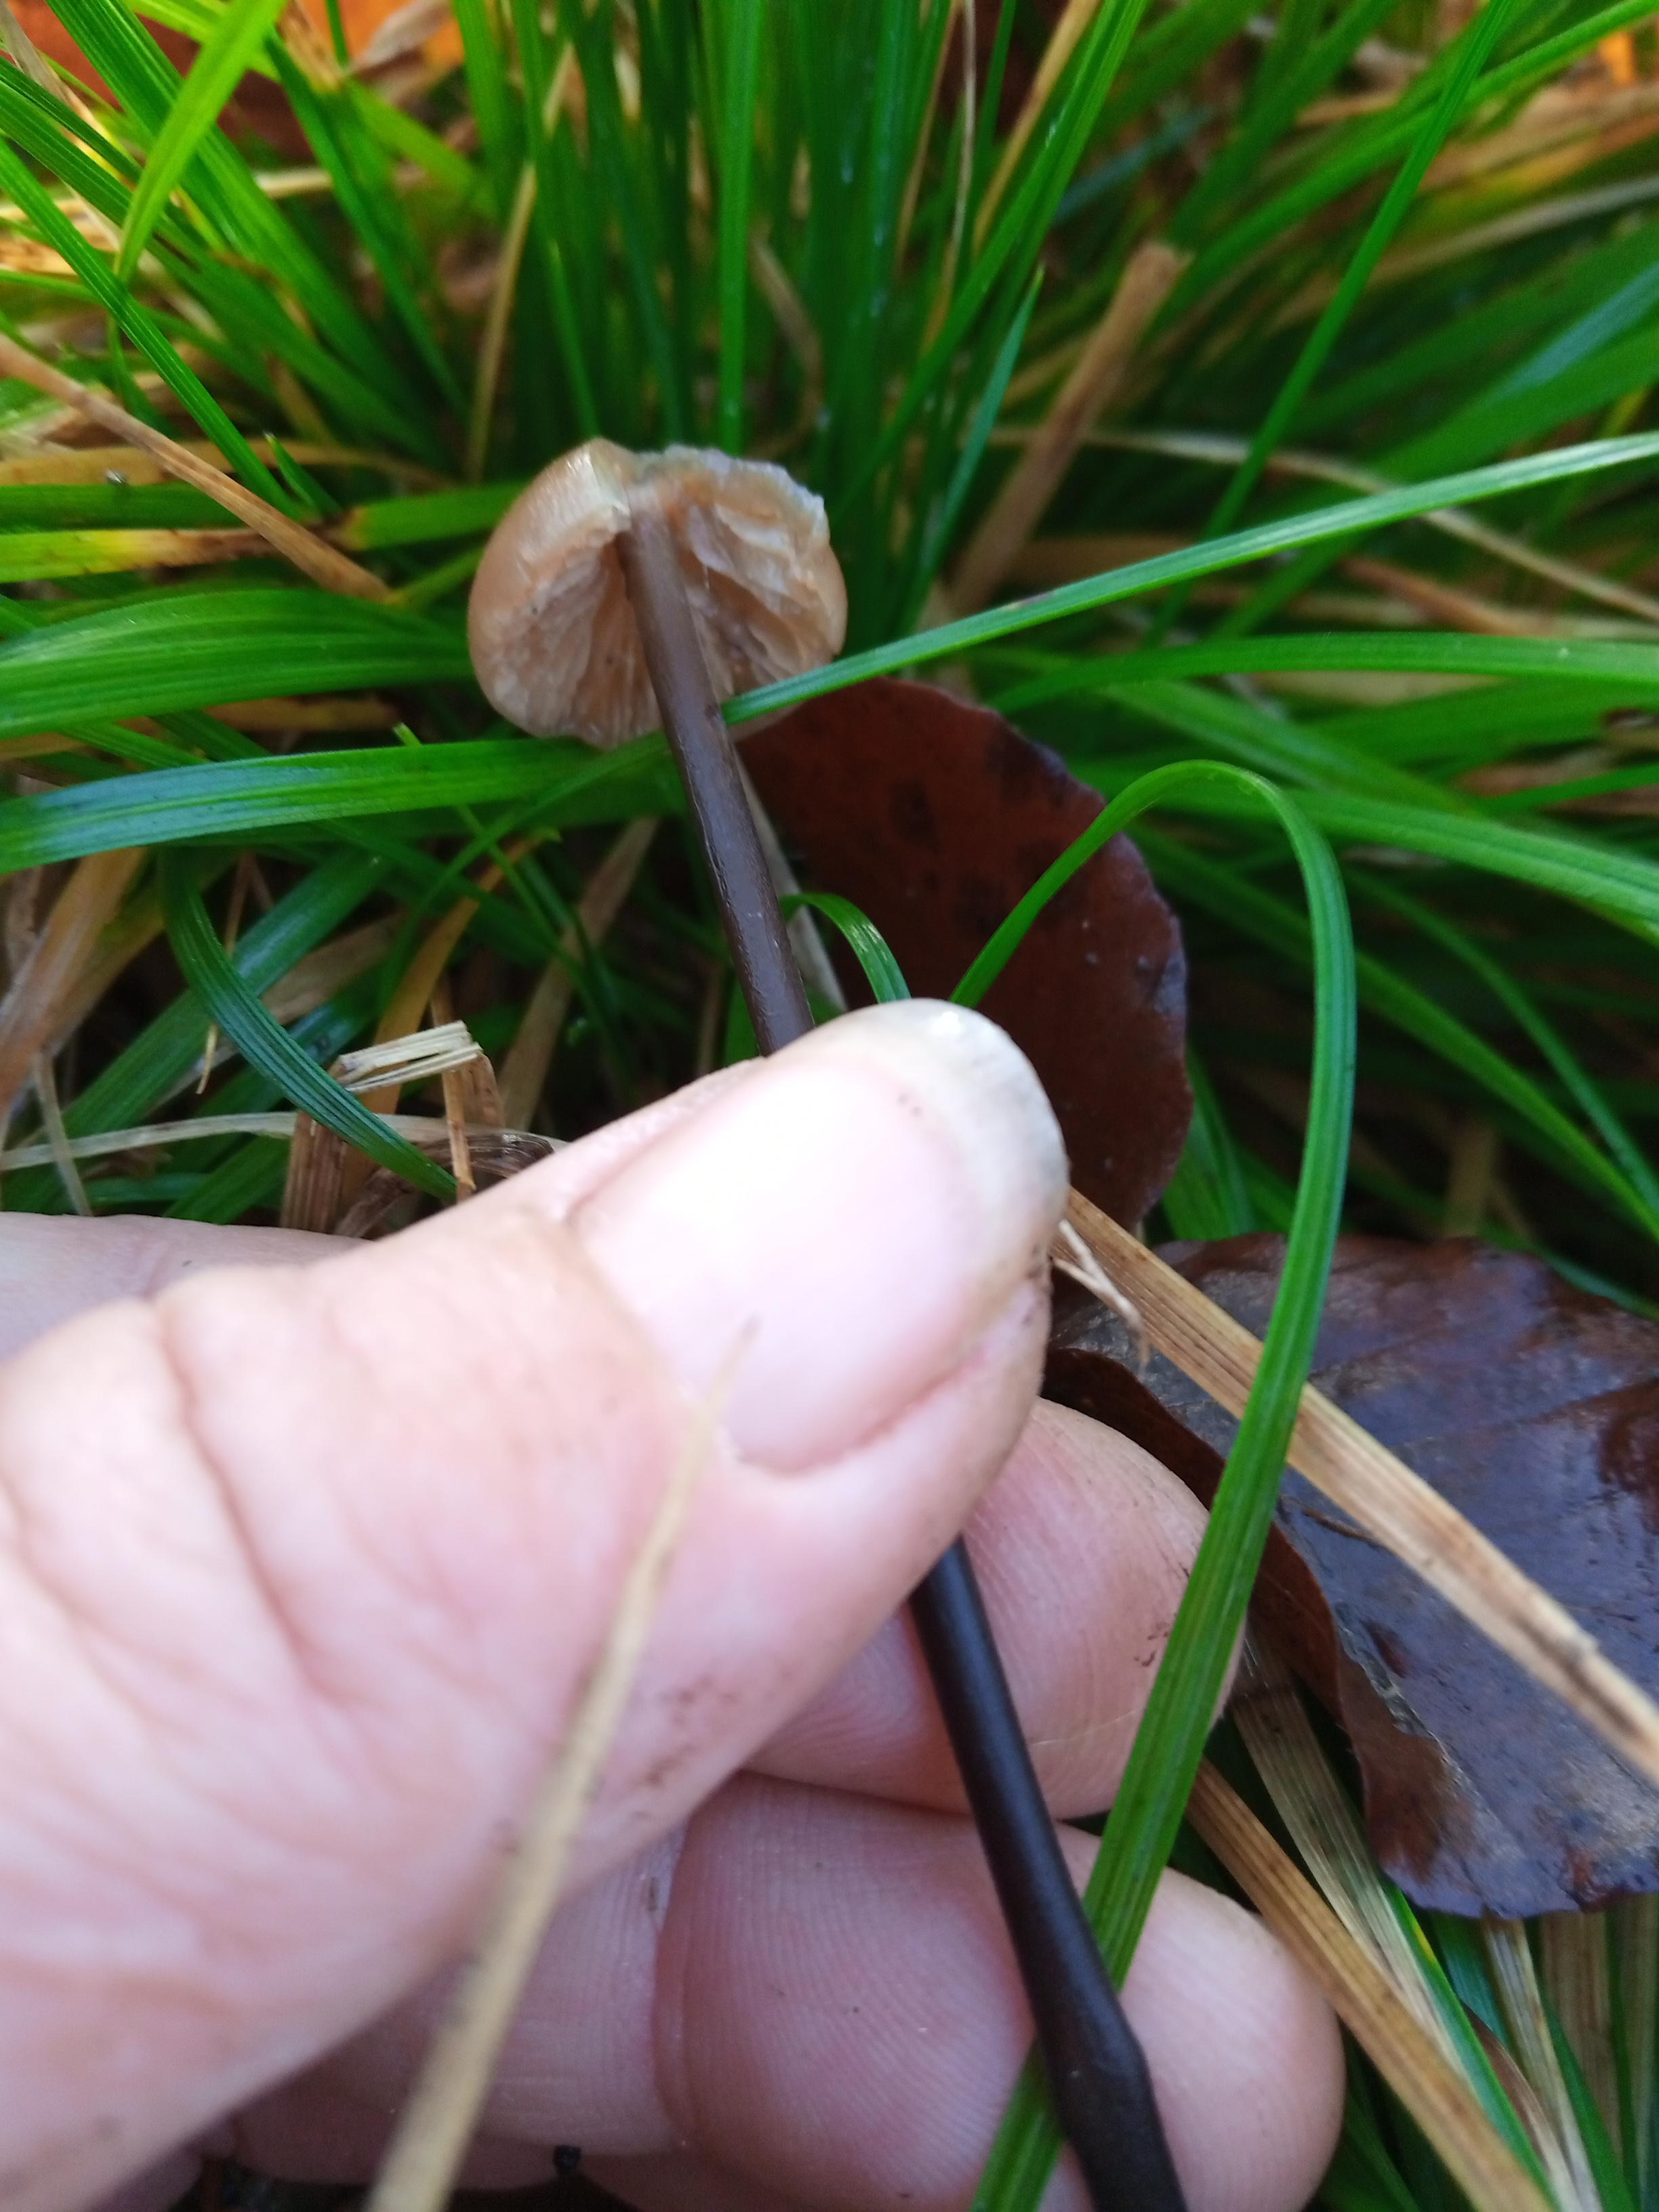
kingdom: Fungi
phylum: Basidiomycota
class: Agaricomycetes
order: Agaricales
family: Omphalotaceae
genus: Mycetinis
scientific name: Mycetinis alliaceus
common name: stor løghat
